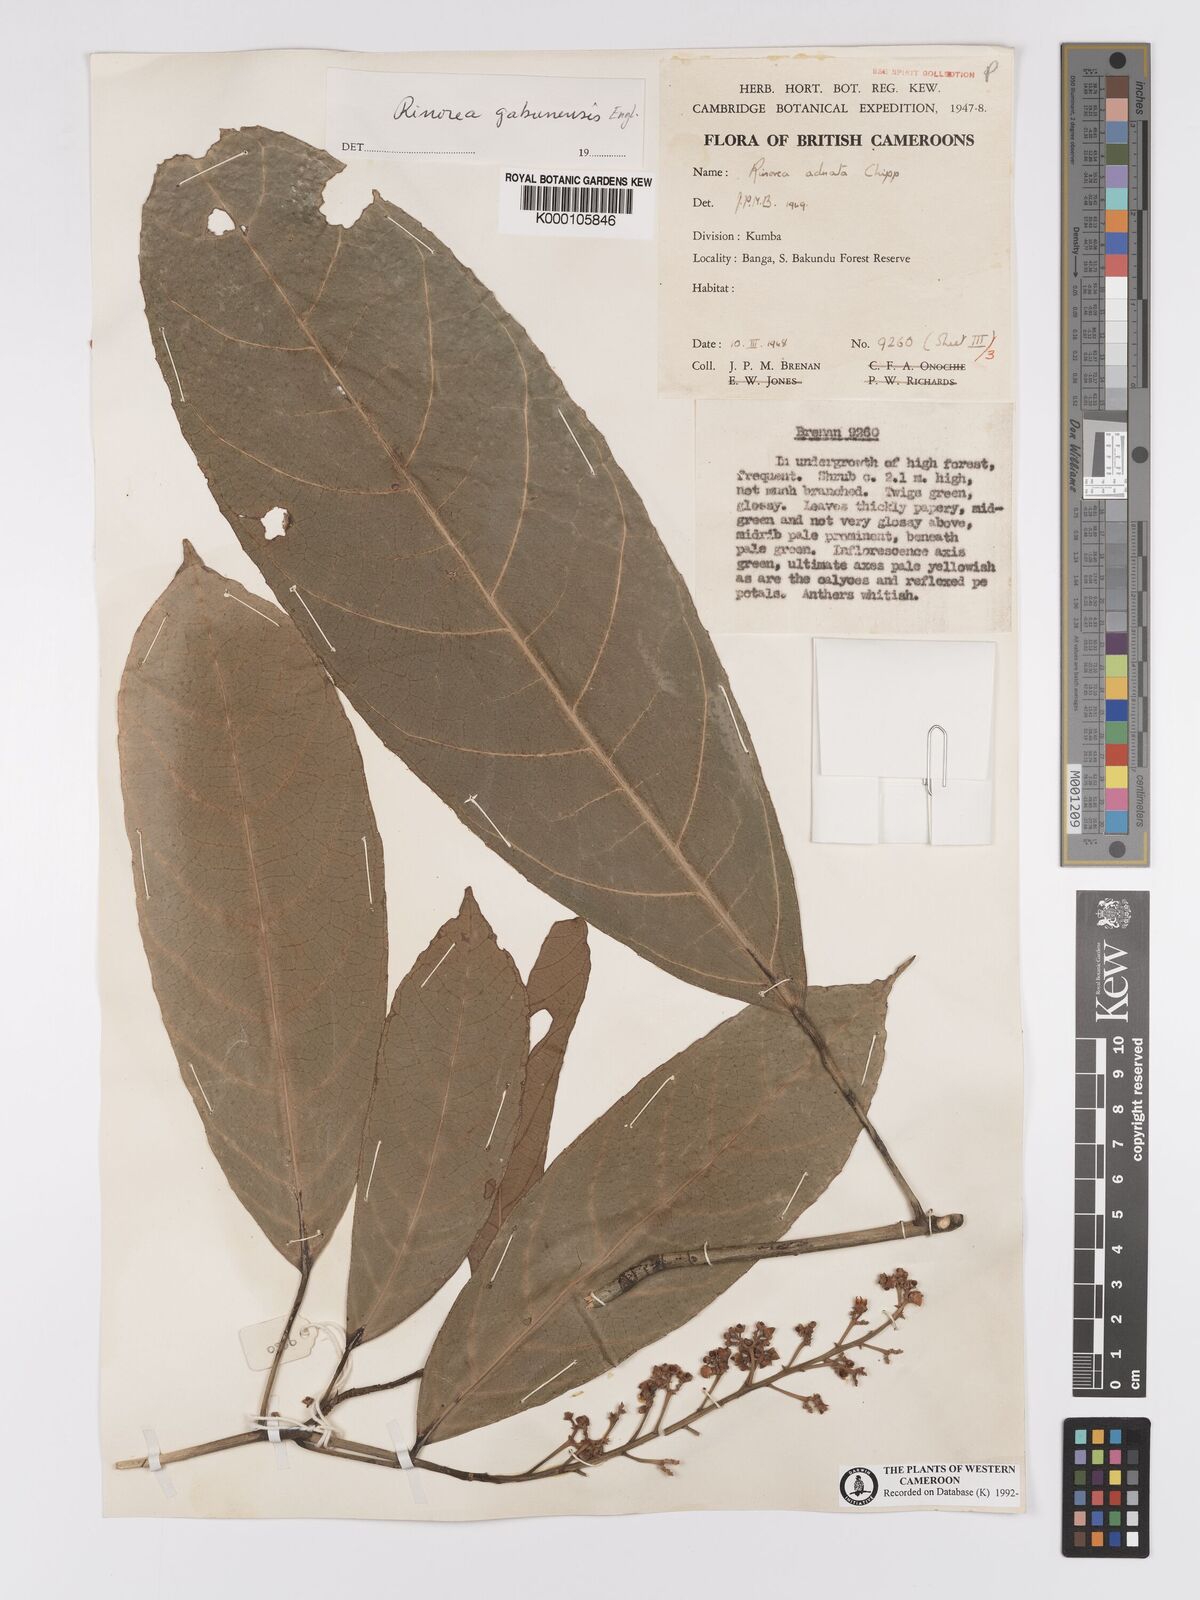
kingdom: Plantae
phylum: Tracheophyta
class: Magnoliopsida
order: Malpighiales
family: Violaceae
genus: Rinorea
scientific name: Rinorea gabunensis
